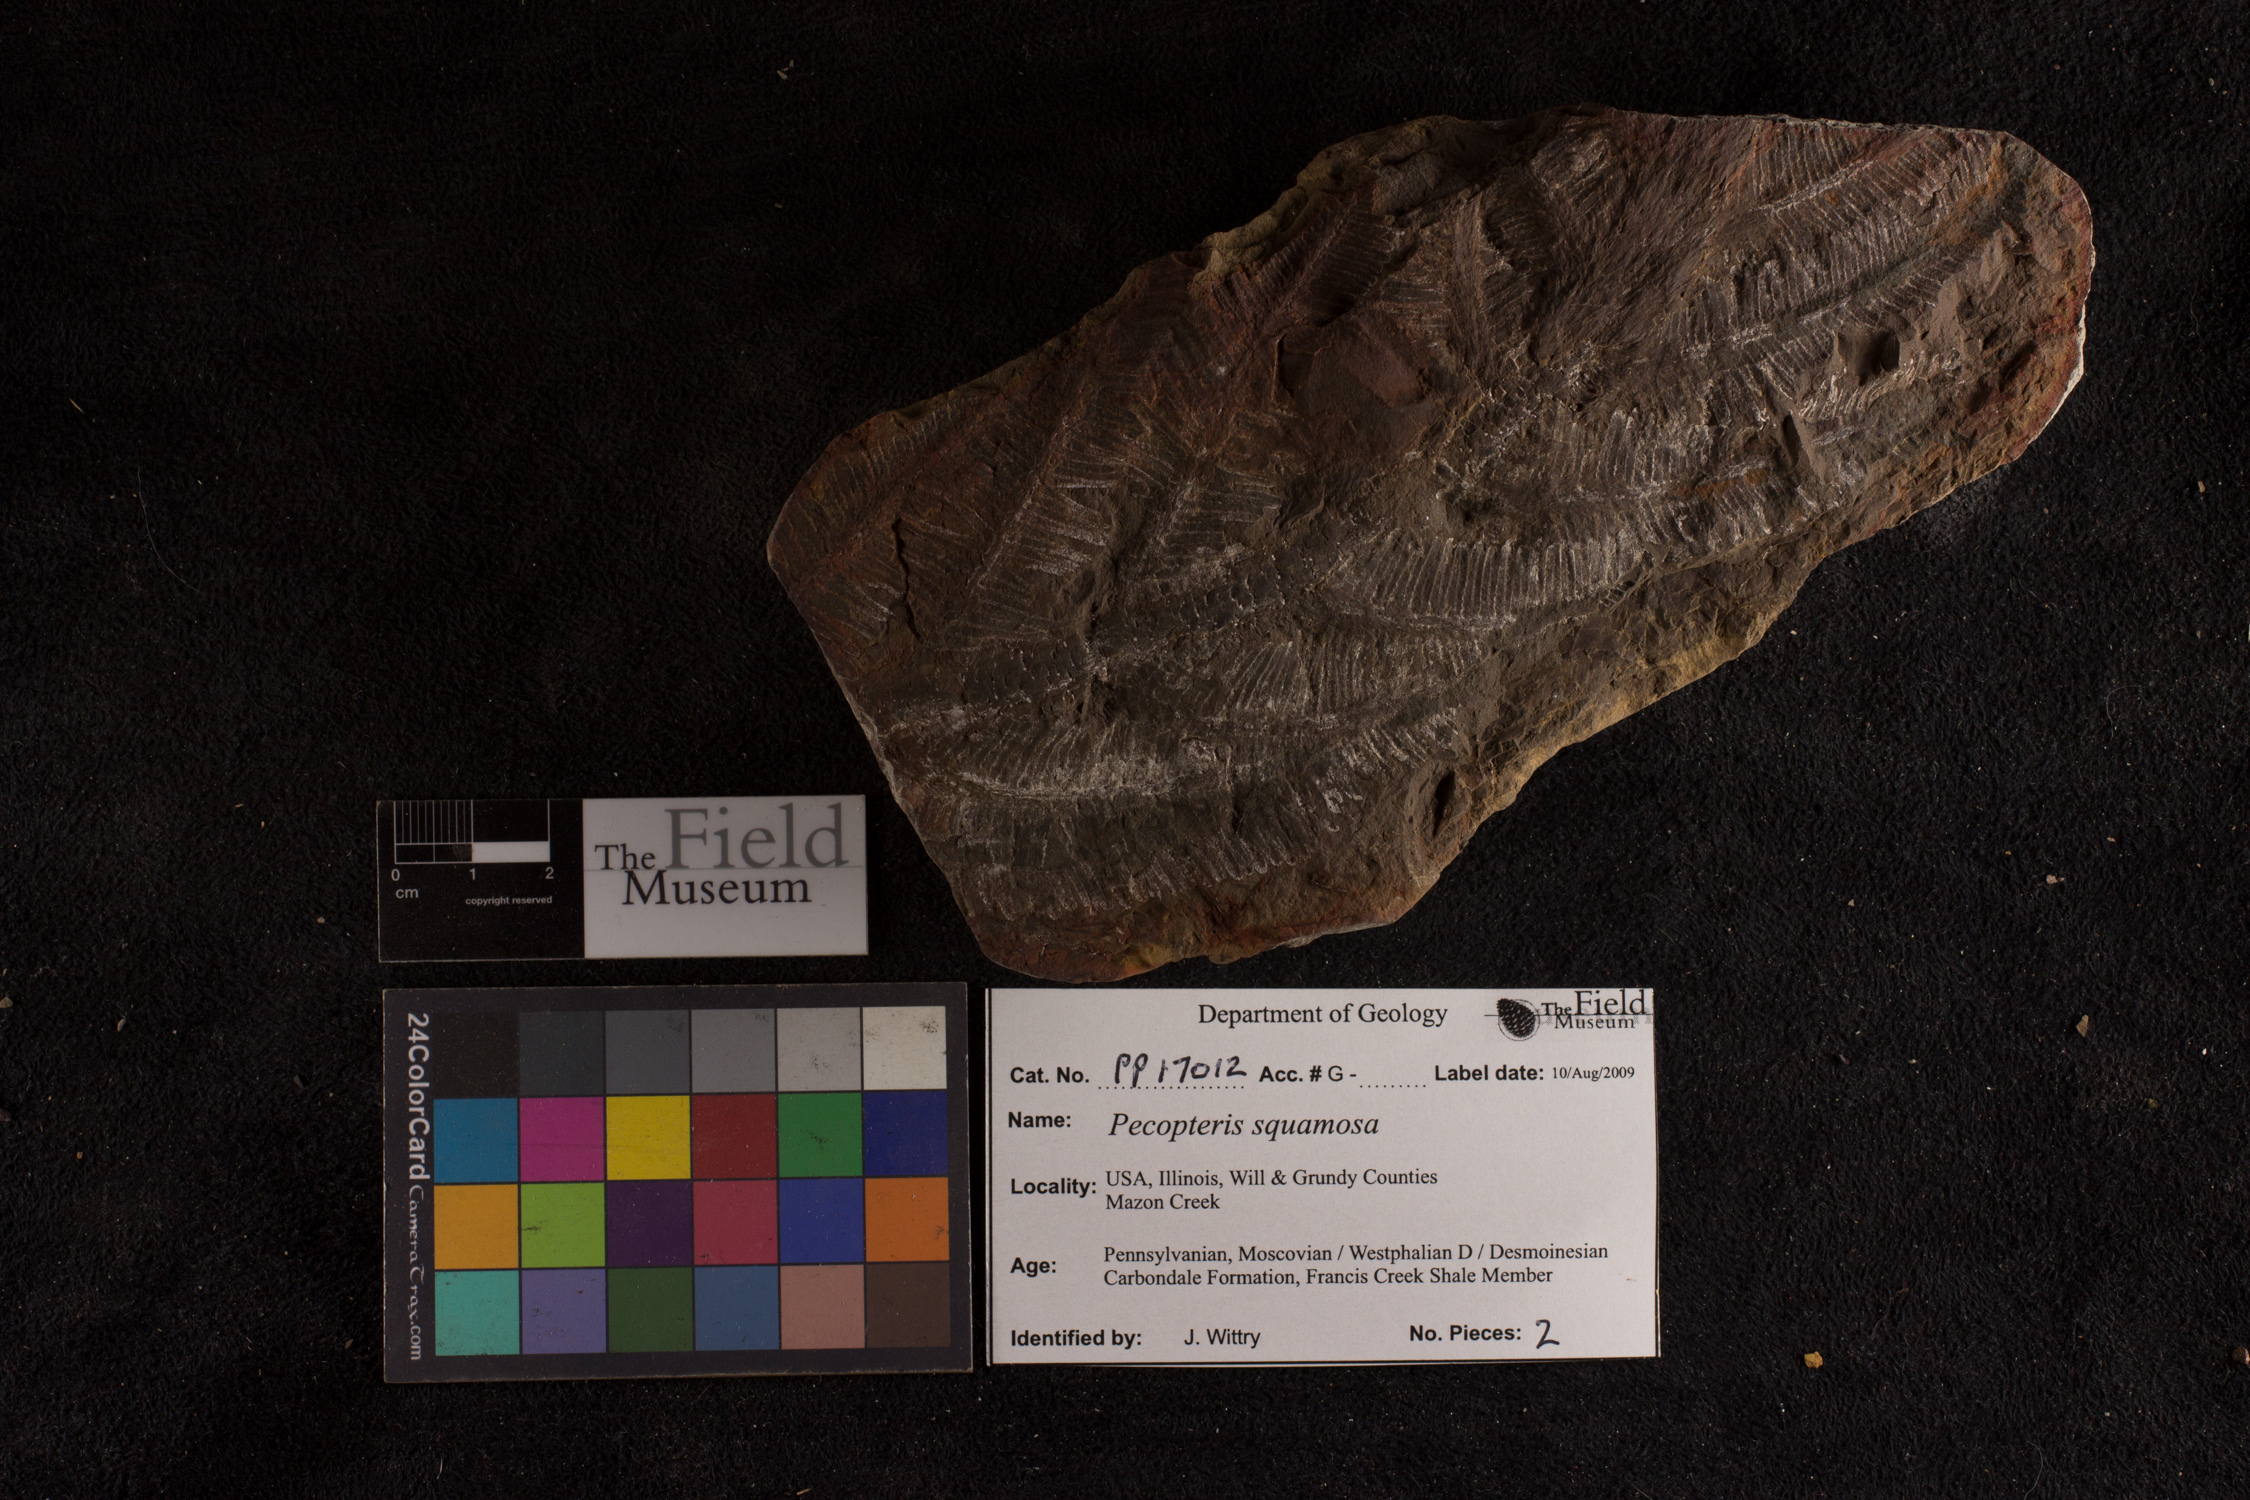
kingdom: Plantae
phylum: Tracheophyta
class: Polypodiopsida
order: Marattiales
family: Asterothecaceae
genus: Pecopteris
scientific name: Pecopteris
